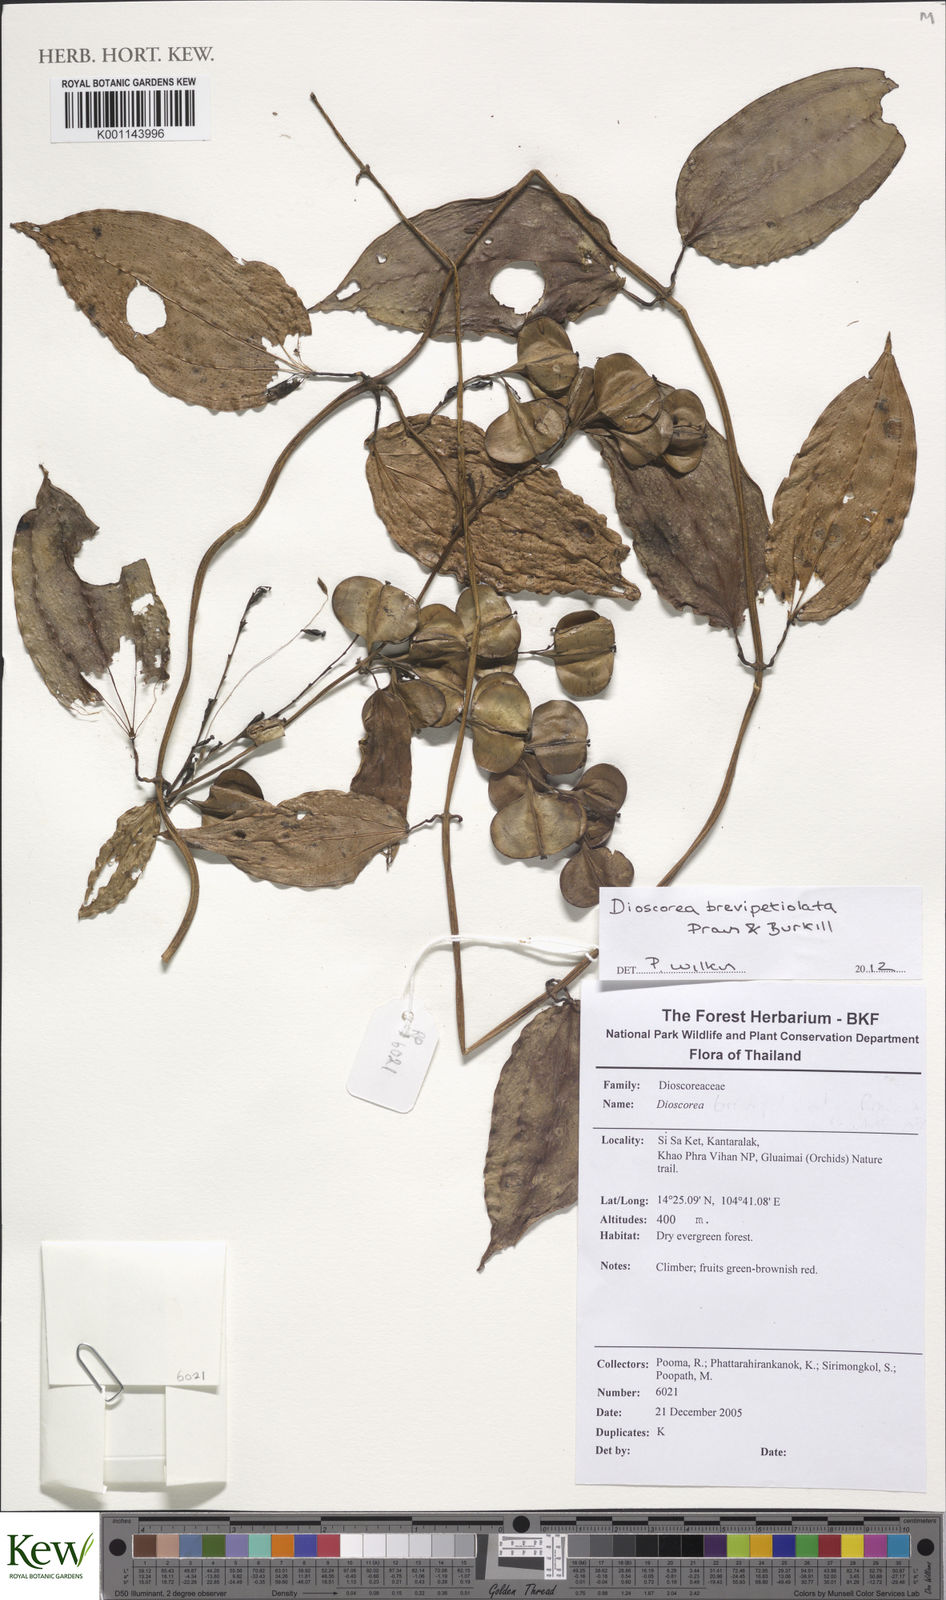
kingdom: Plantae
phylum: Tracheophyta
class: Liliopsida
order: Dioscoreales
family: Dioscoreaceae
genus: Dioscorea
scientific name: Dioscorea brevipetiolata
